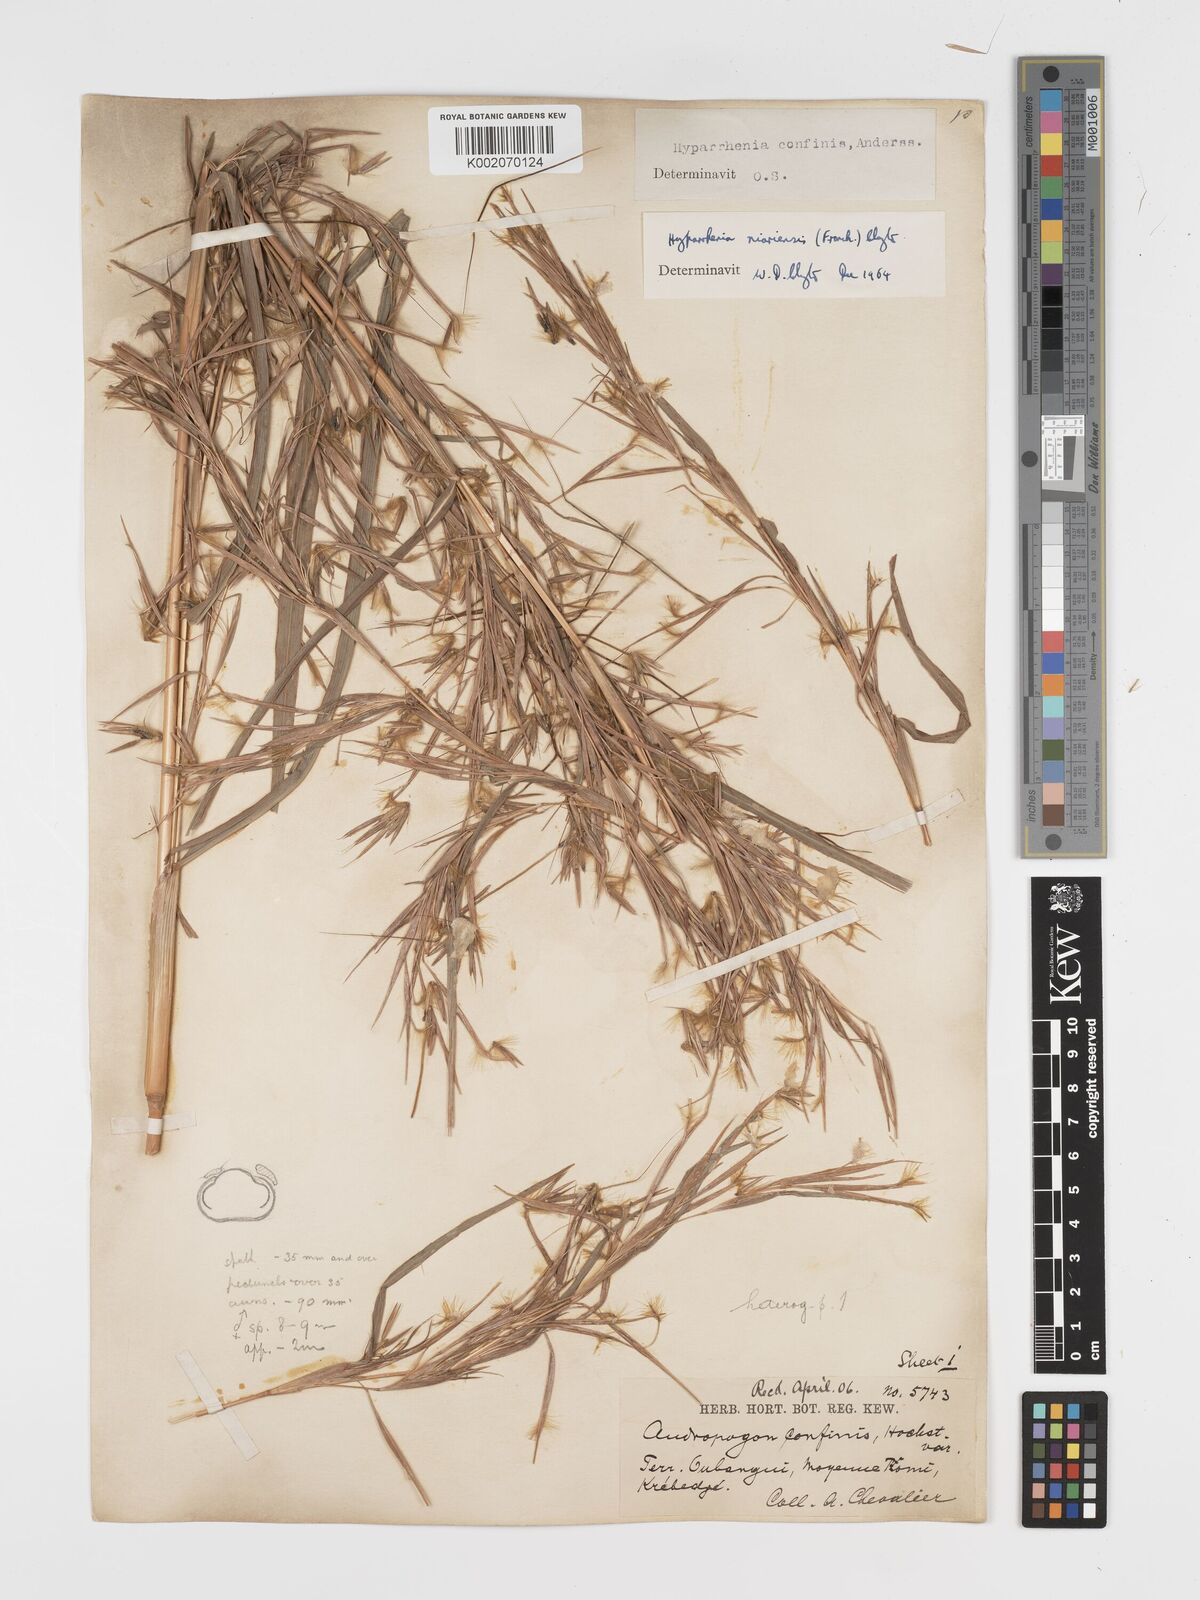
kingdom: Plantae
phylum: Tracheophyta
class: Liliopsida
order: Poales
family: Poaceae
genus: Hyparrhenia
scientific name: Hyparrhenia niariensis
